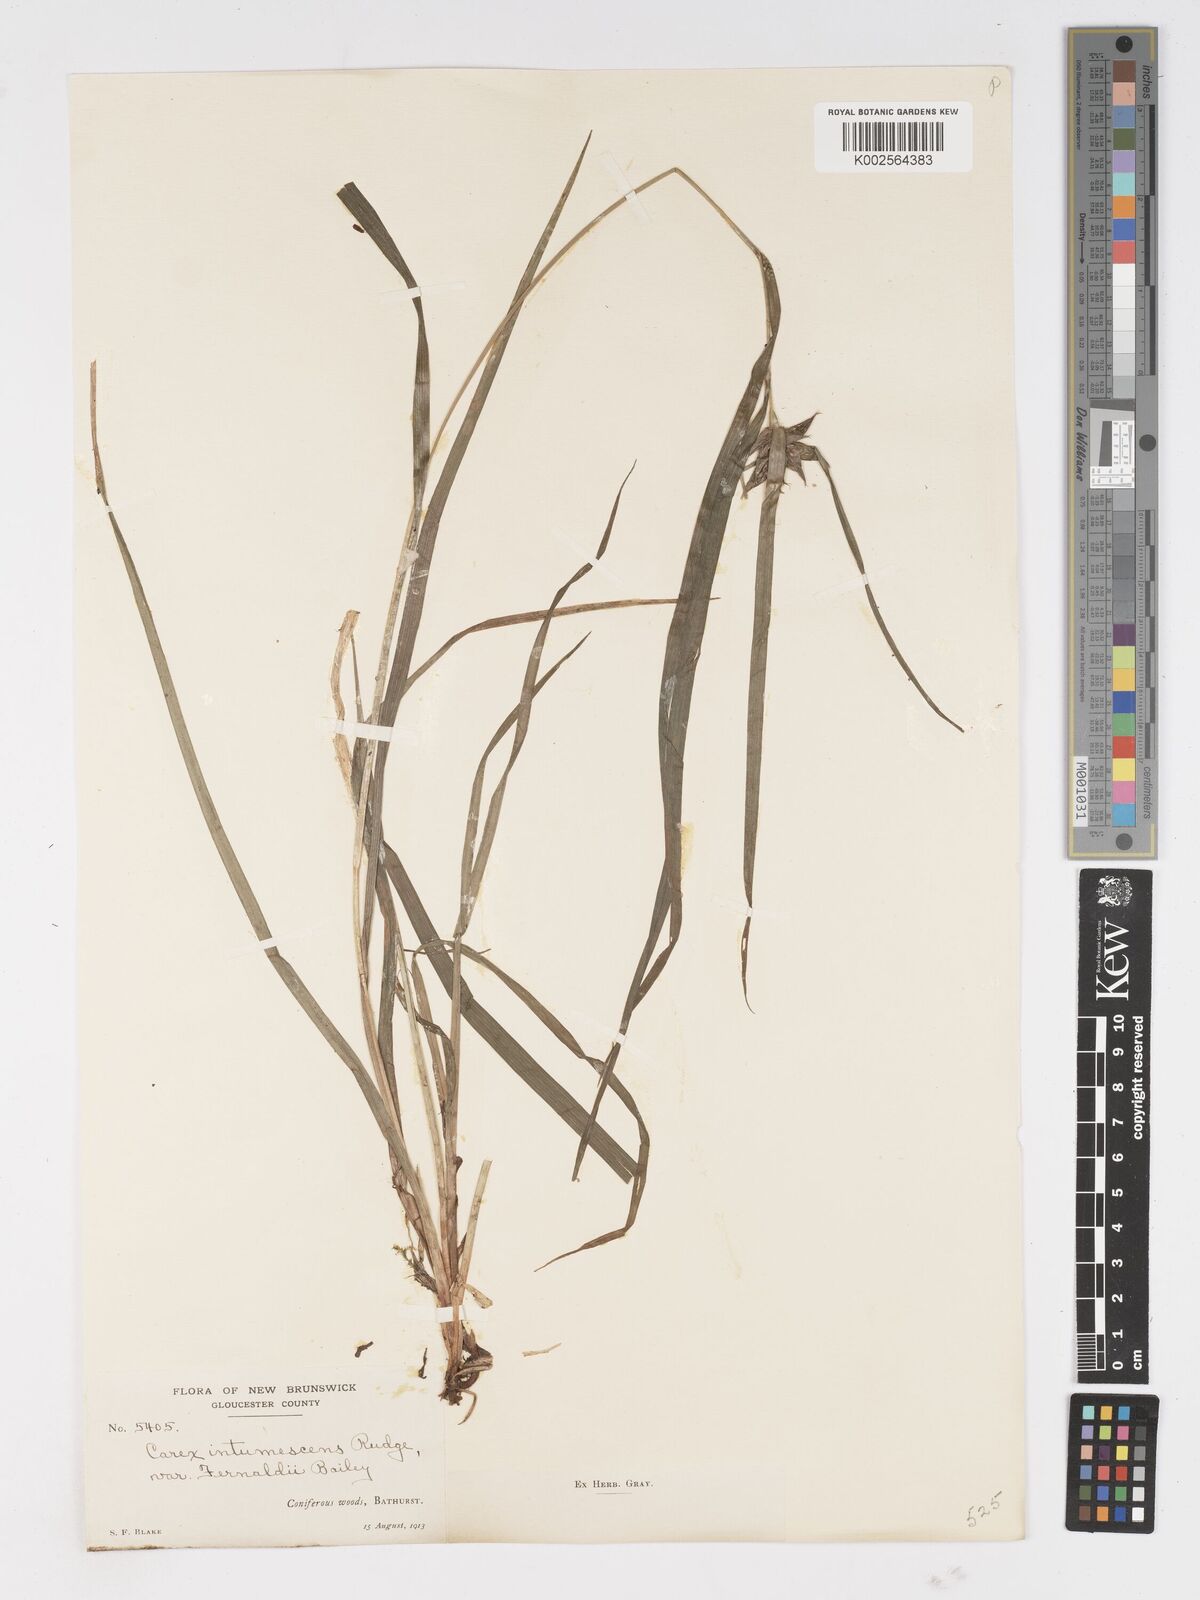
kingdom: Plantae
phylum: Tracheophyta
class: Liliopsida
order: Poales
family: Cyperaceae
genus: Carex
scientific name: Carex intumescens
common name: Greater bladder sedge
